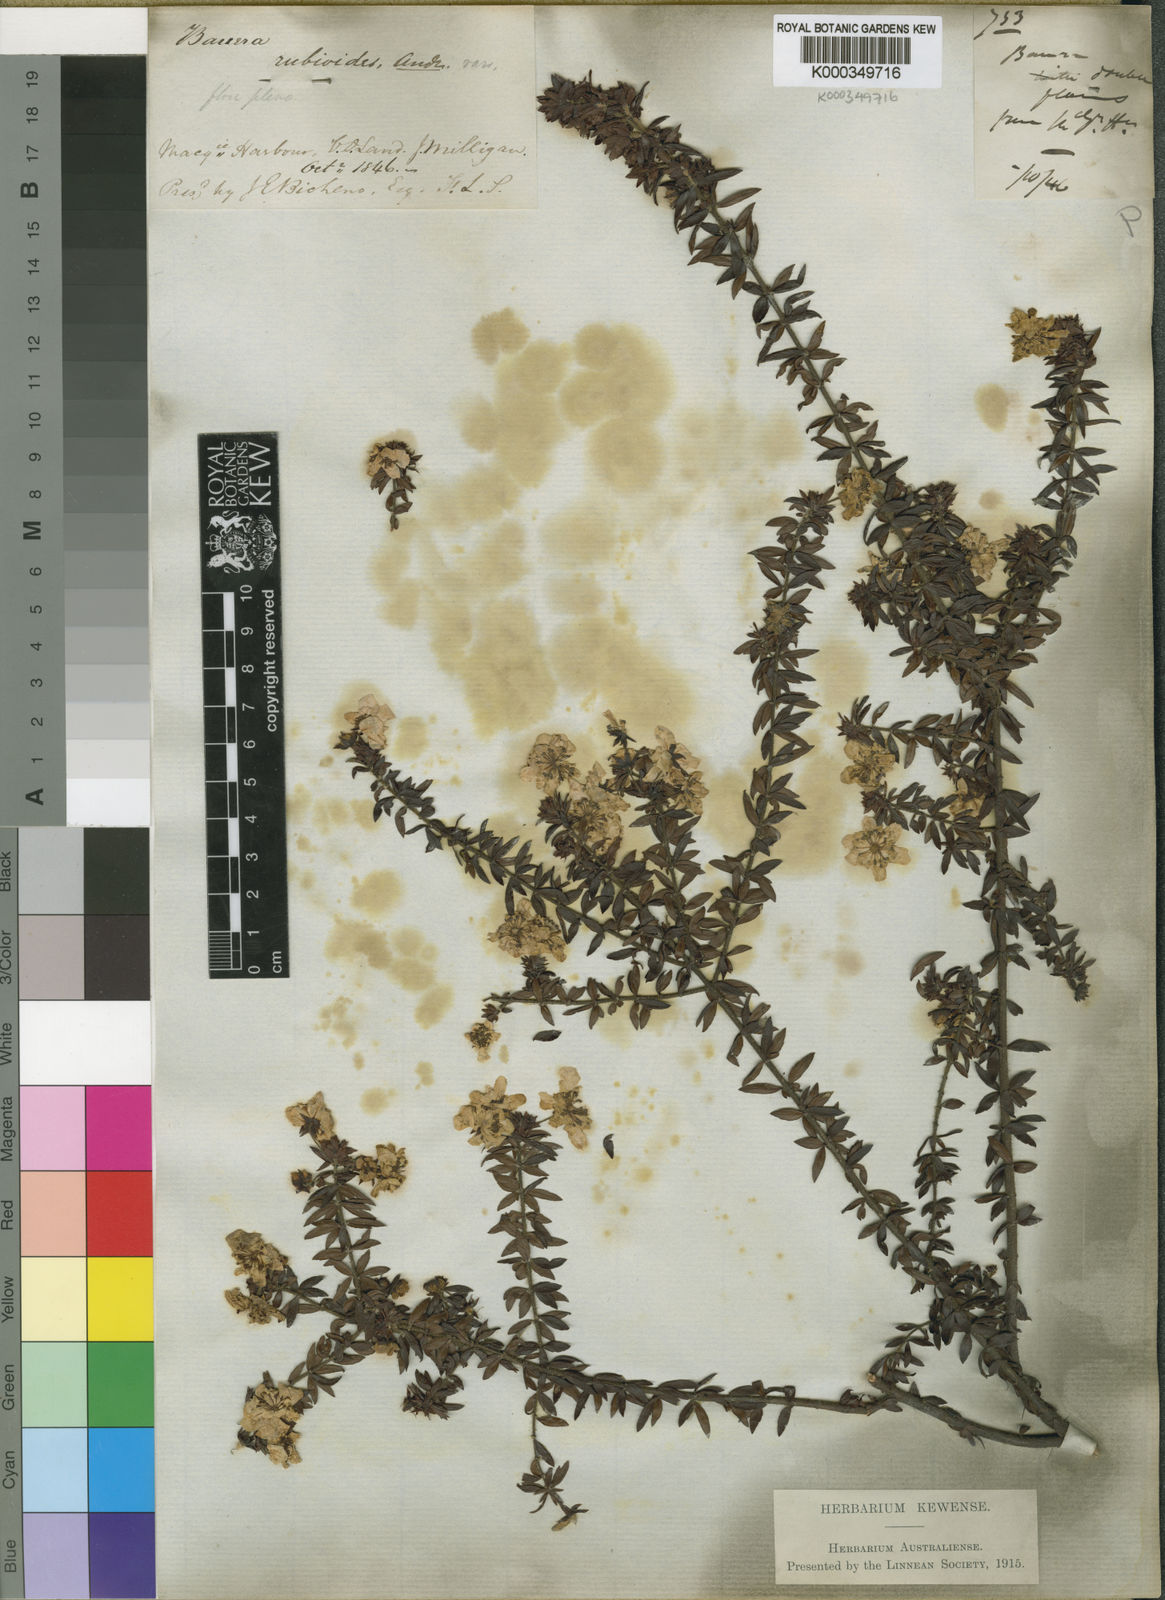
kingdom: Plantae
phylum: Tracheophyta
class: Magnoliopsida
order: Oxalidales
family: Cunoniaceae
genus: Bauera
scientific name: Bauera rubioides
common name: River-rose
